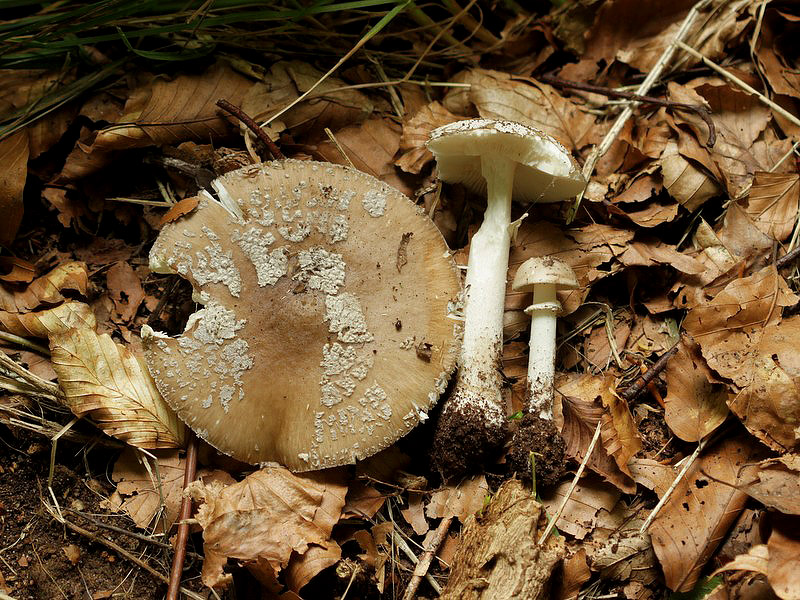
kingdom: Fungi
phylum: Basidiomycota
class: Agaricomycetes
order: Agaricales
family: Amanitaceae
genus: Amanita
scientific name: Amanita
